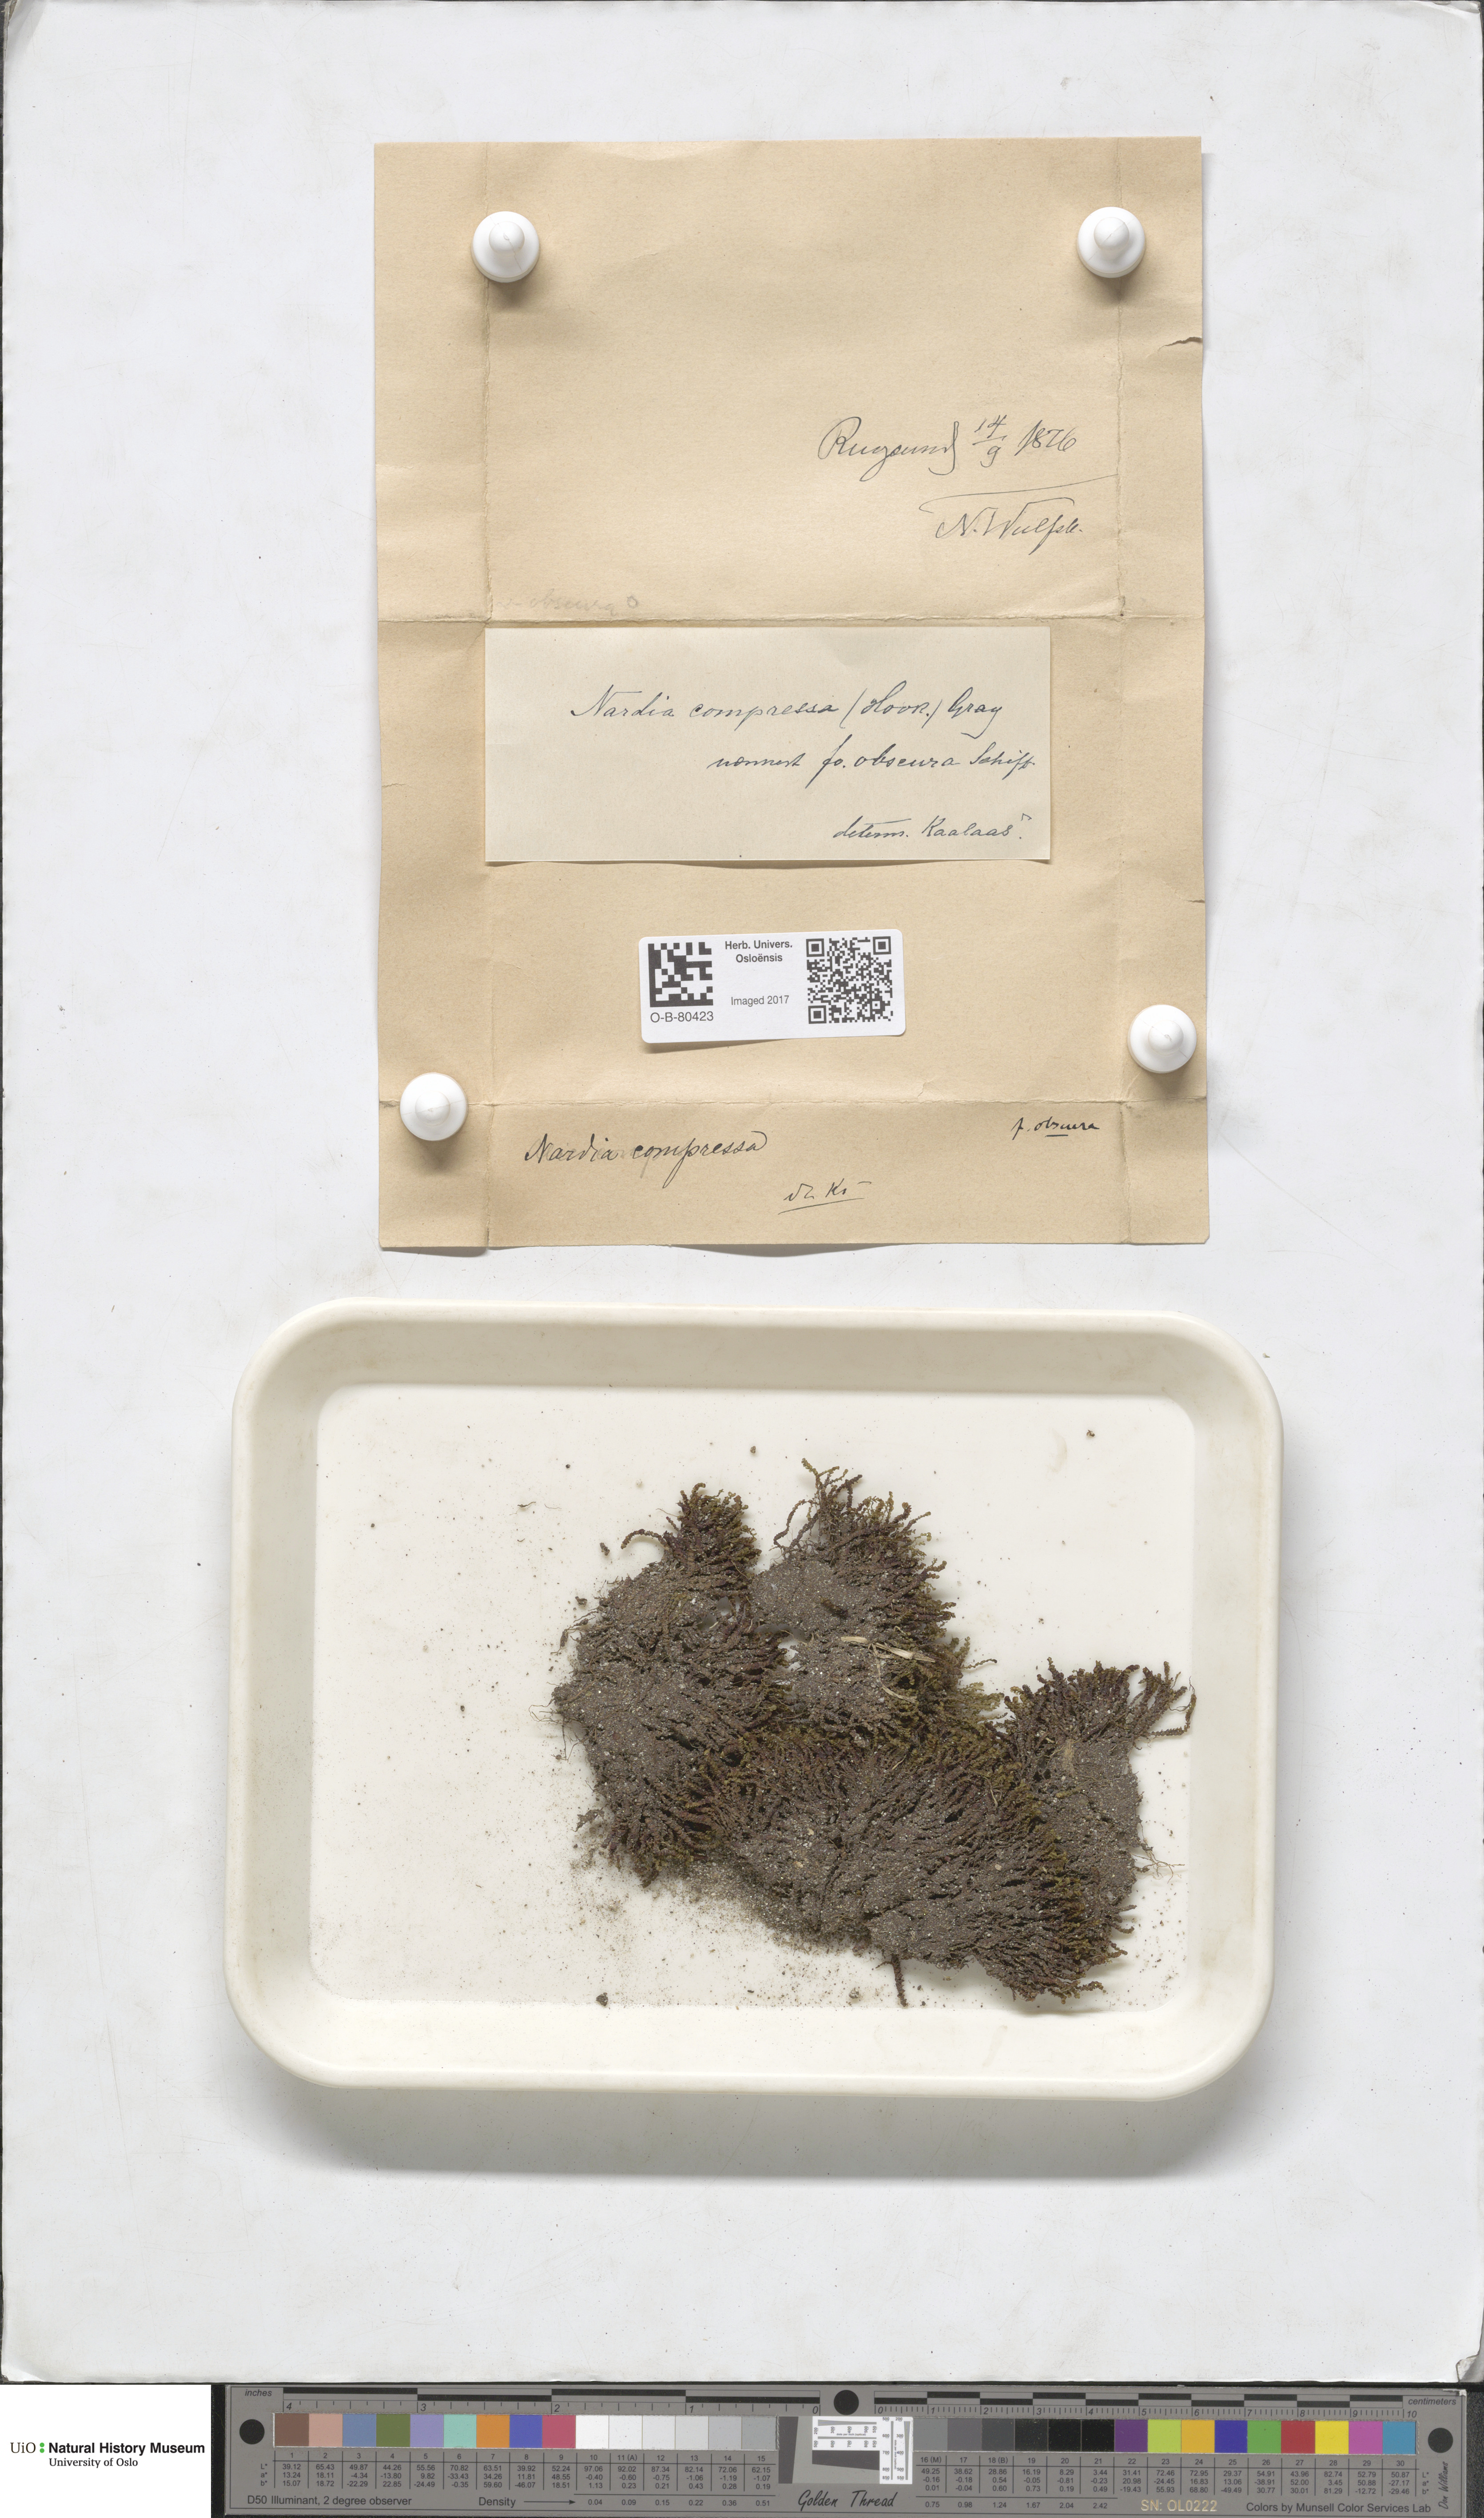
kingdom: Plantae
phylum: Marchantiophyta
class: Jungermanniopsida
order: Jungermanniales
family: Gymnomitriaceae
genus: Nardia
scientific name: Nardia compressa
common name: Compressed flapwort
